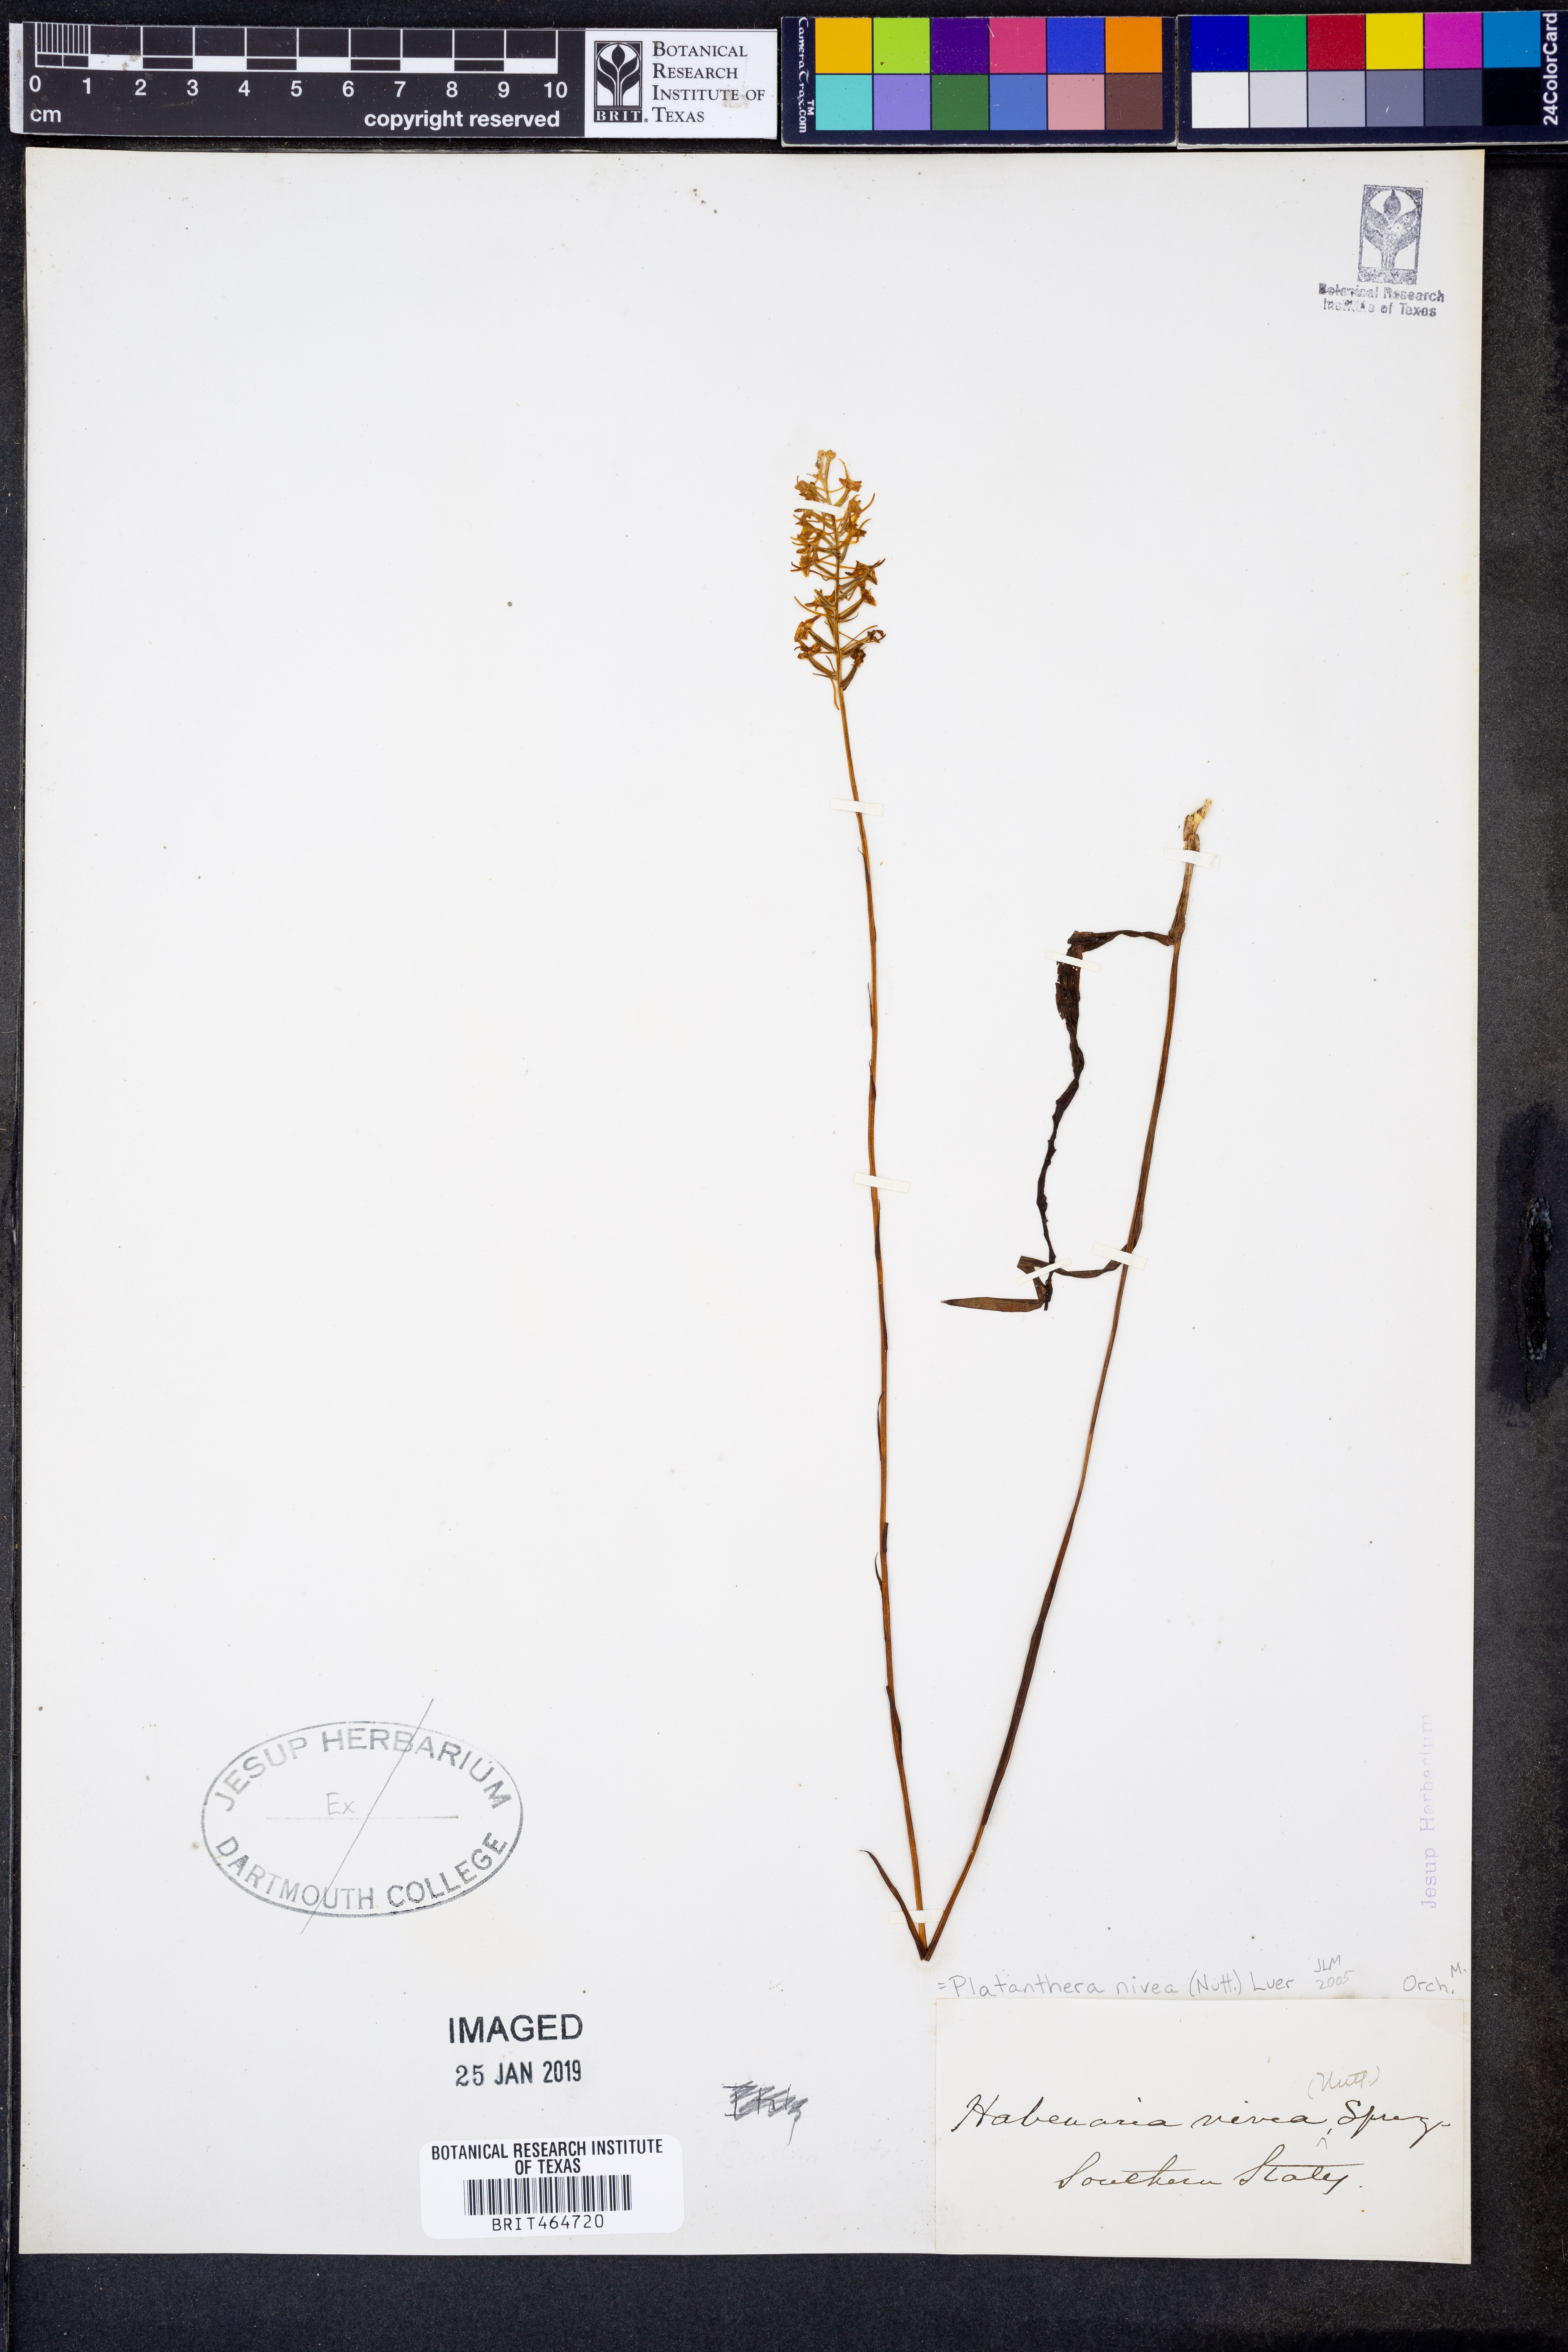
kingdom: Plantae
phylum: Tracheophyta
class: Liliopsida
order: Asparagales
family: Orchidaceae
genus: Platanthera
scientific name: Platanthera nivea
